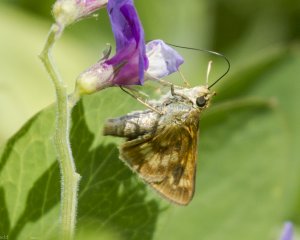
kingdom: Animalia
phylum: Arthropoda
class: Insecta
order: Lepidoptera
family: Hesperiidae
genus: Polites
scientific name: Polites
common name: Long Dash Skipper
